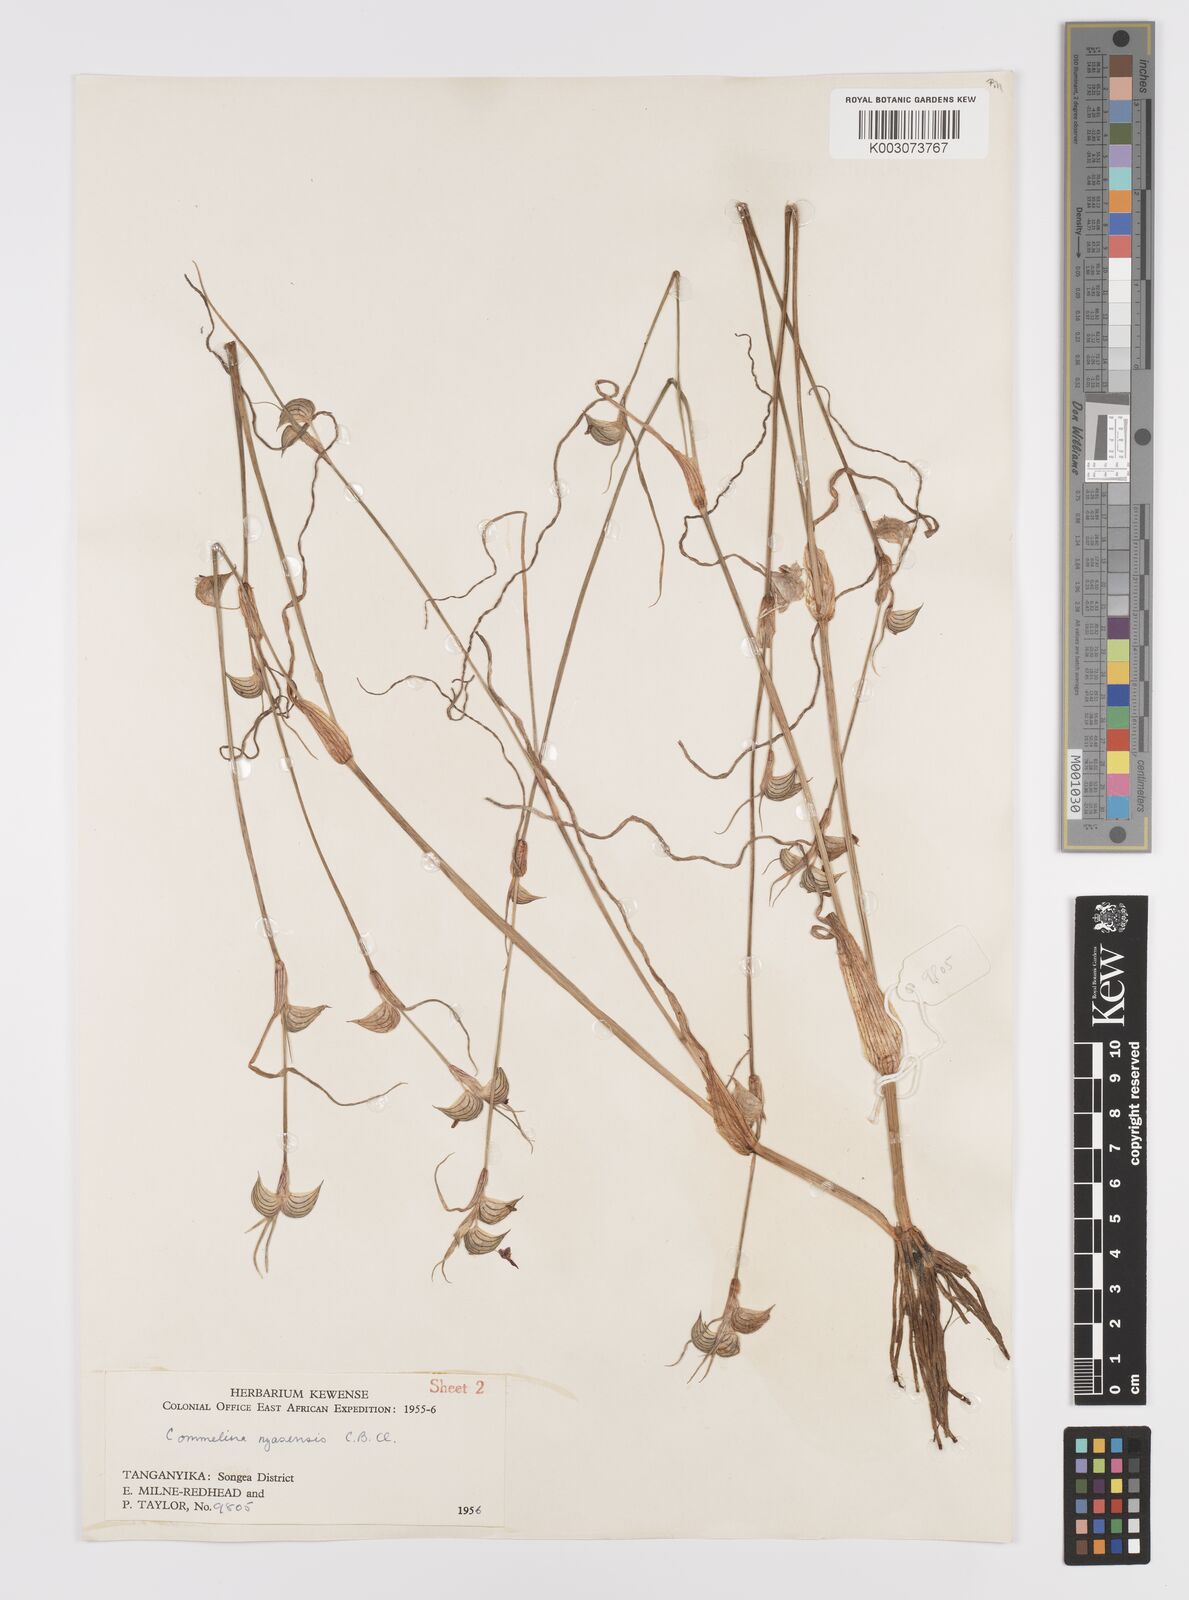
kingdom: Plantae
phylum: Tracheophyta
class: Liliopsida
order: Commelinales
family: Commelinaceae
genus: Commelina
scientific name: Commelina nyasensis
